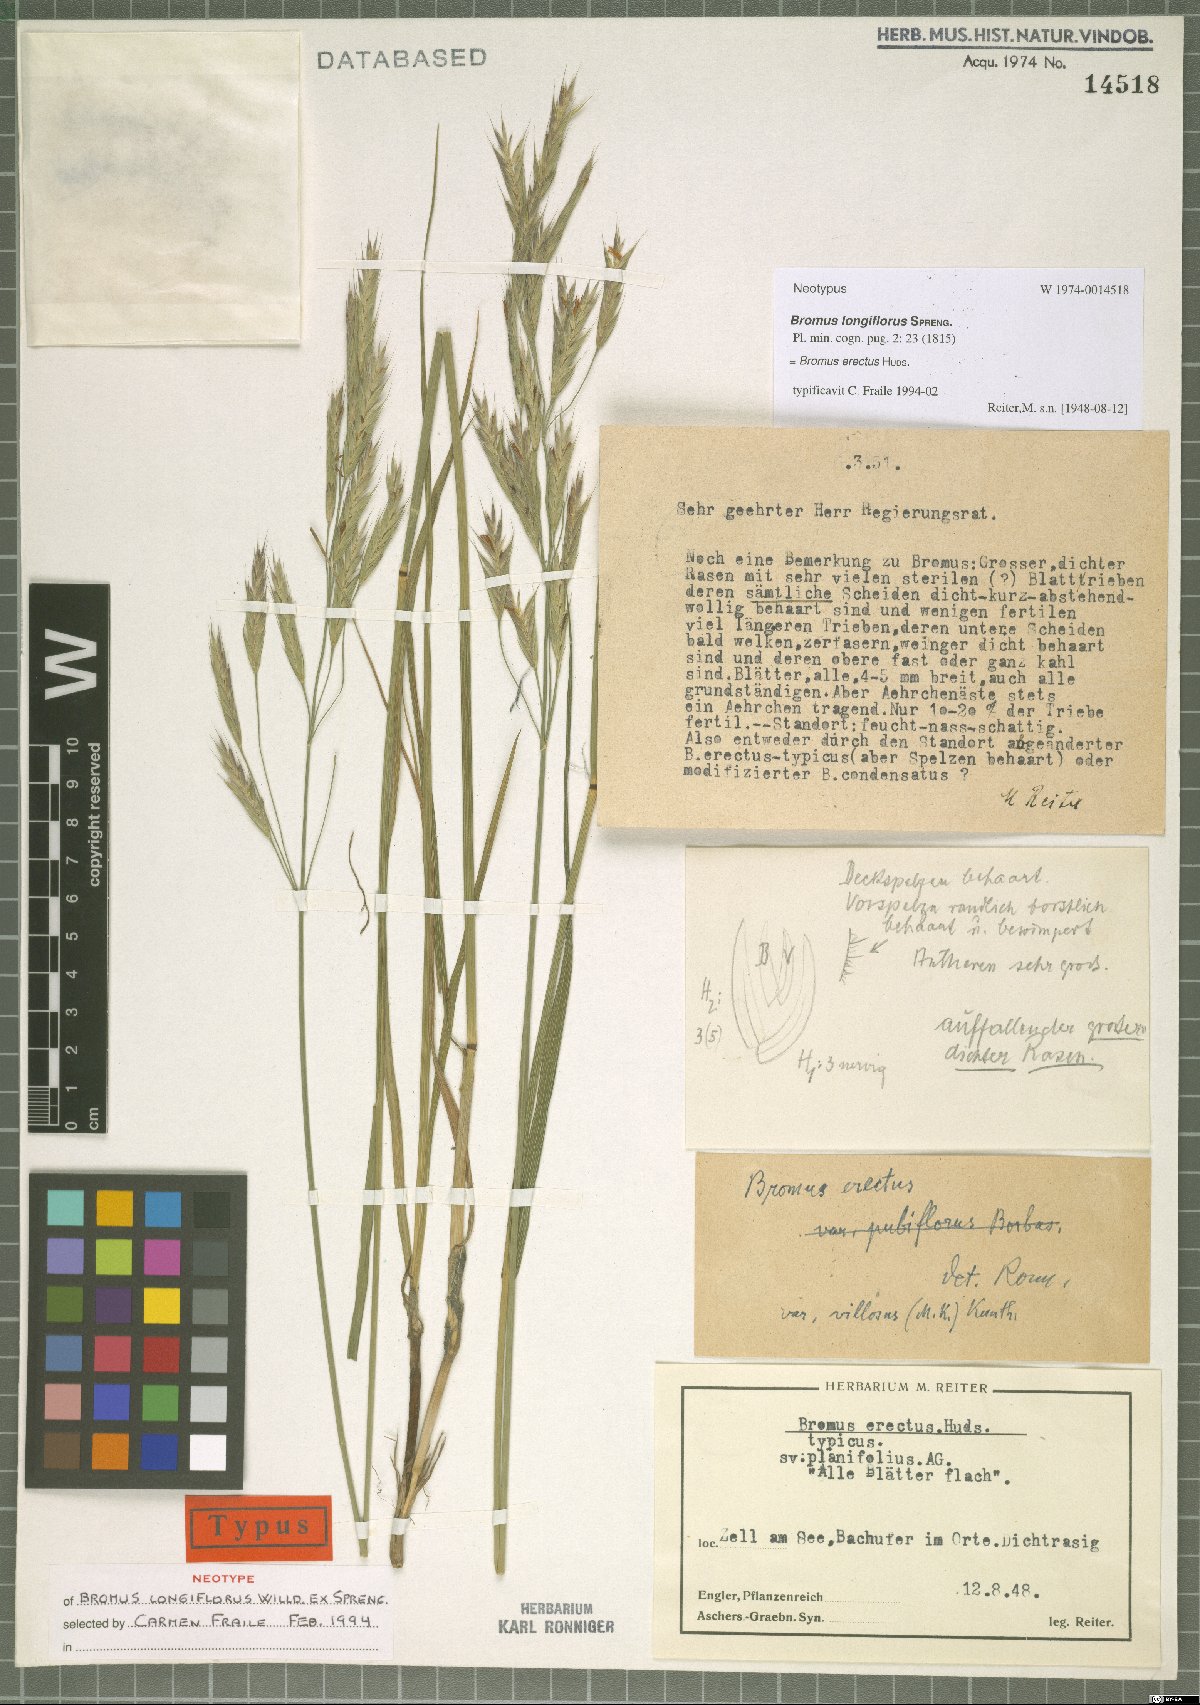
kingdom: Plantae
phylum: Tracheophyta
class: Liliopsida
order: Poales
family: Poaceae
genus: Bromus
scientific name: Bromus erectus
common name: Erect brome
